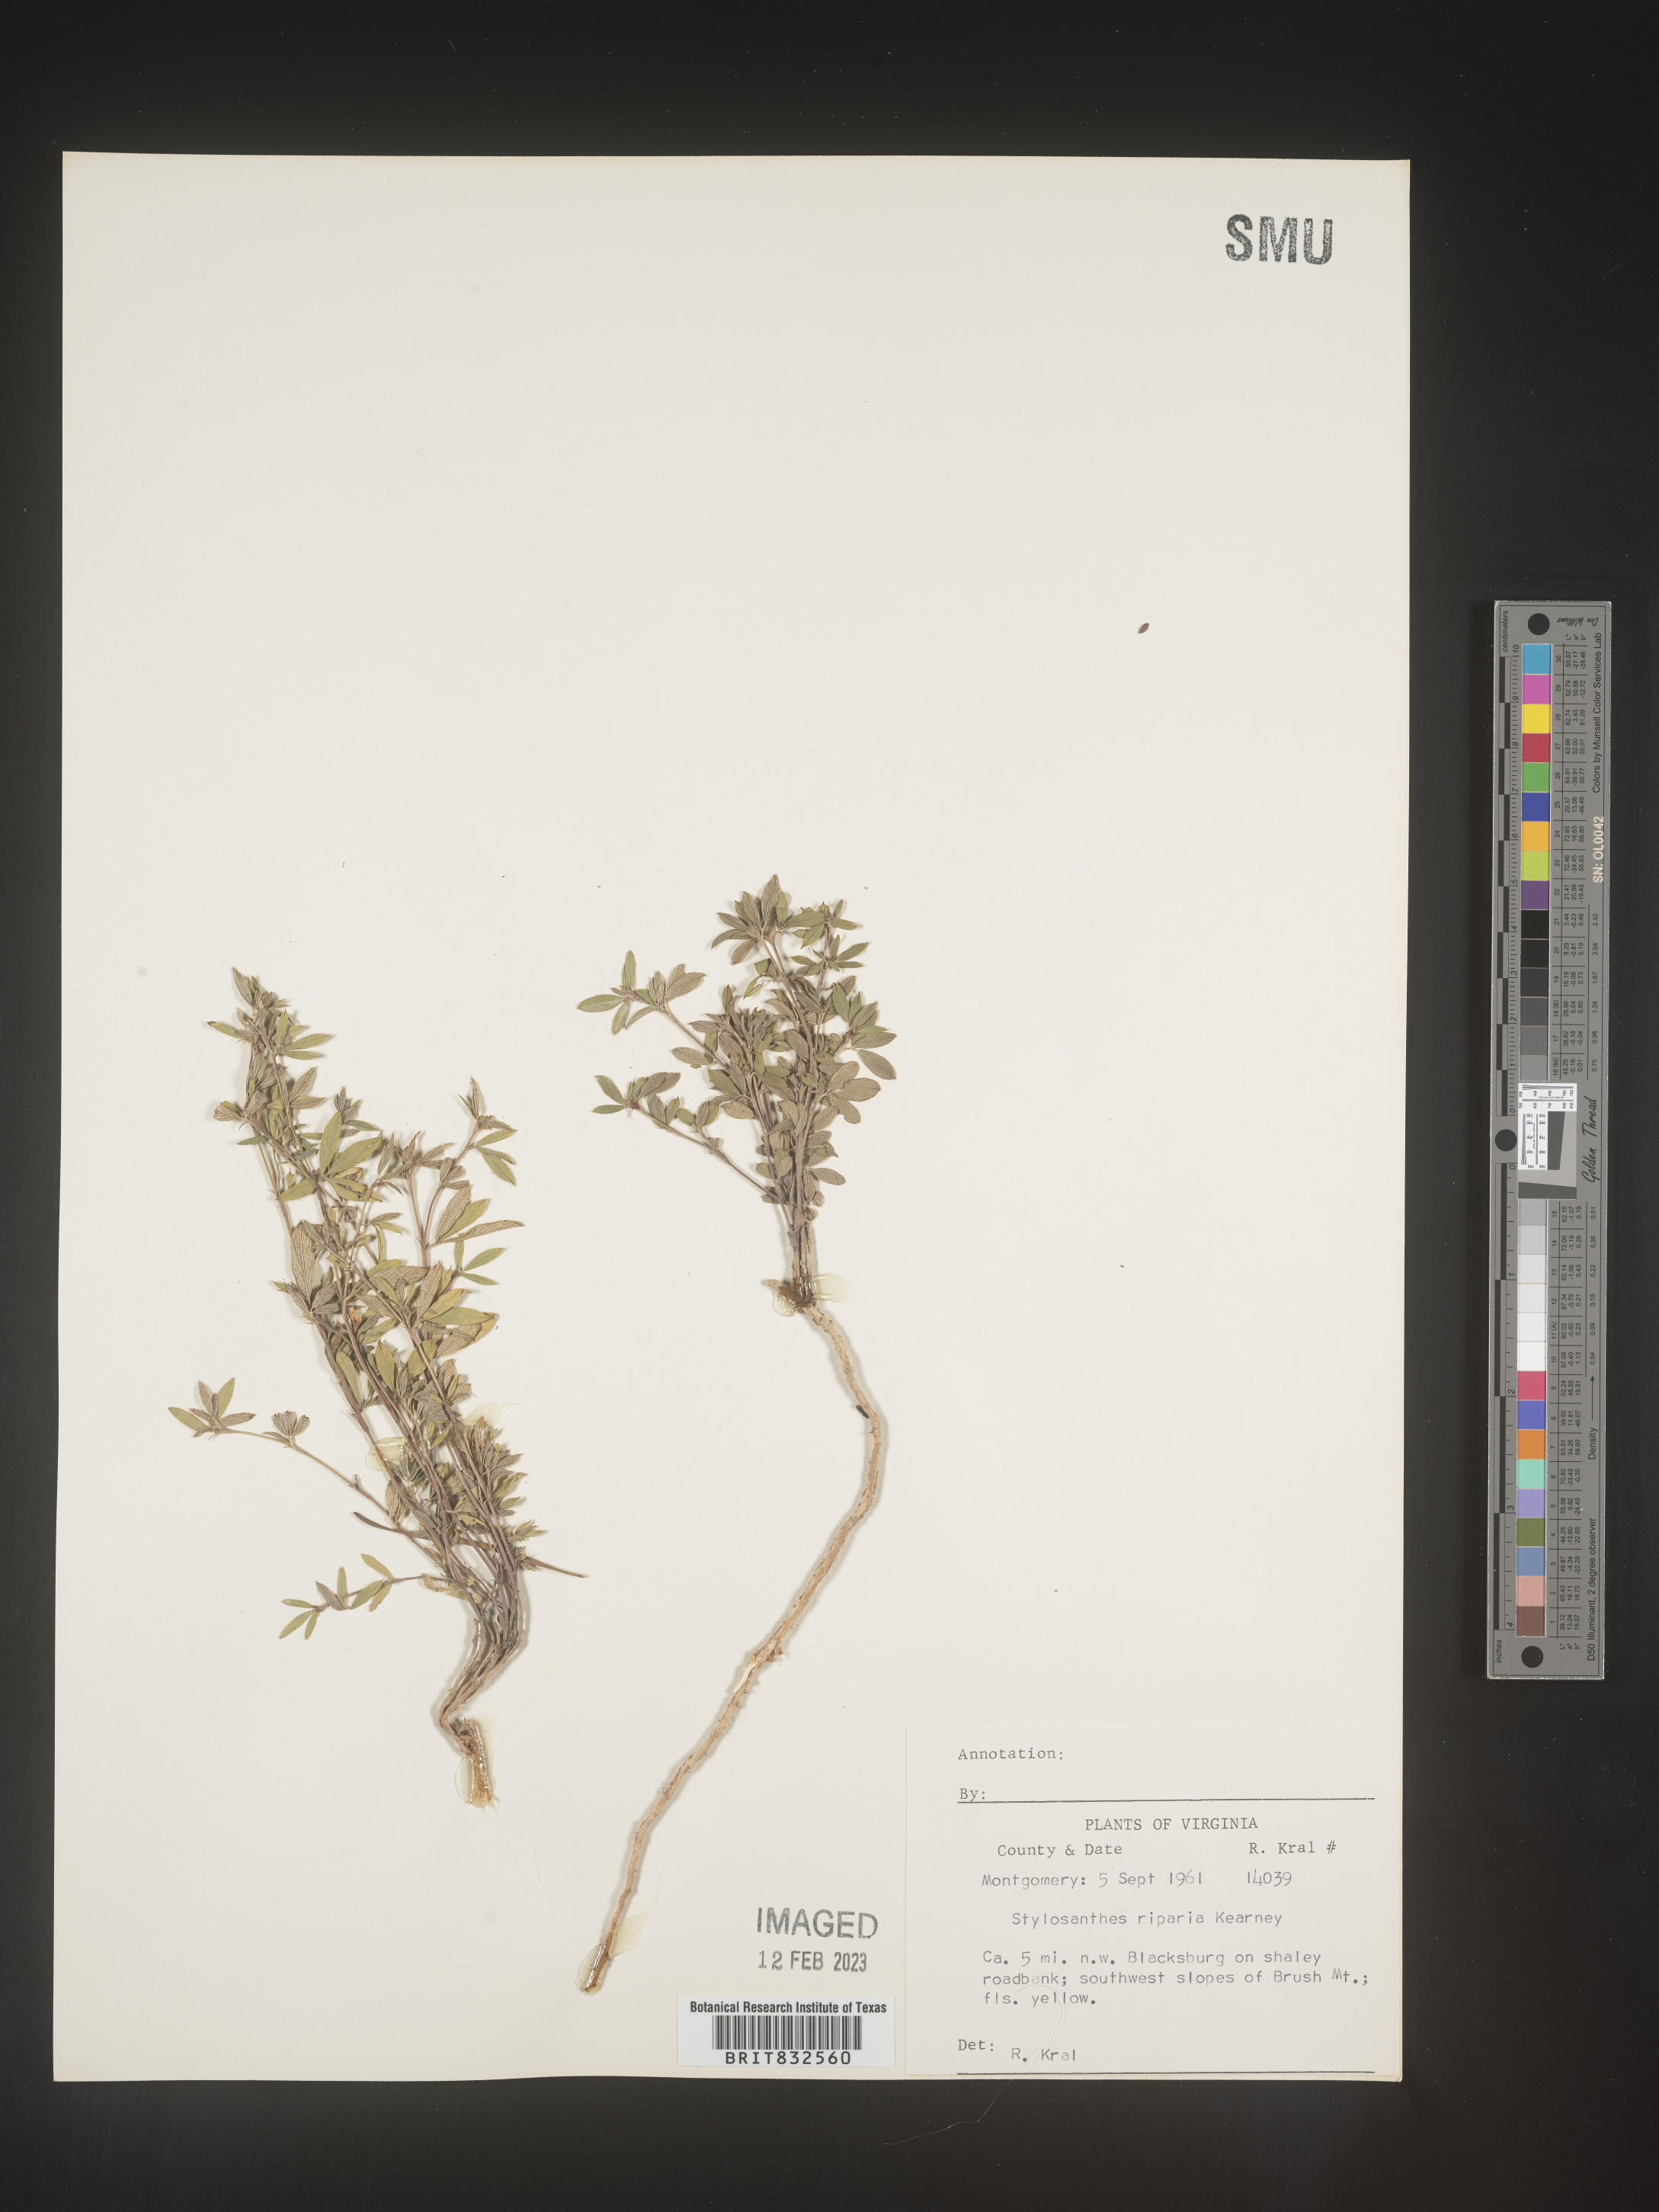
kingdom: Plantae
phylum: Tracheophyta
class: Magnoliopsida
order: Fabales
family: Fabaceae
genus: Stylosanthes
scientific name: Stylosanthes
